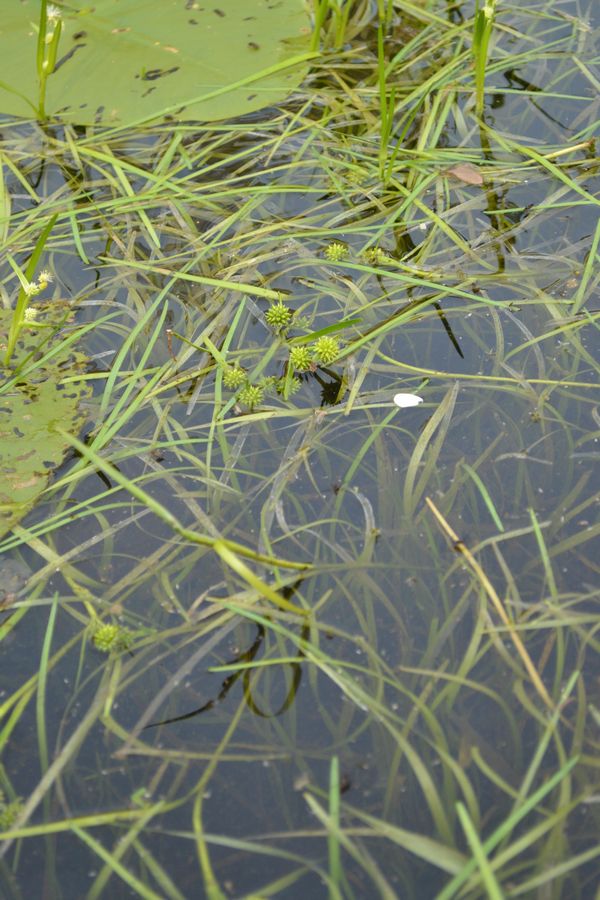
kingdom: Plantae
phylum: Tracheophyta
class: Liliopsida
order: Poales
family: Typhaceae
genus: Sparganium
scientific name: Sparganium hyperboreum
